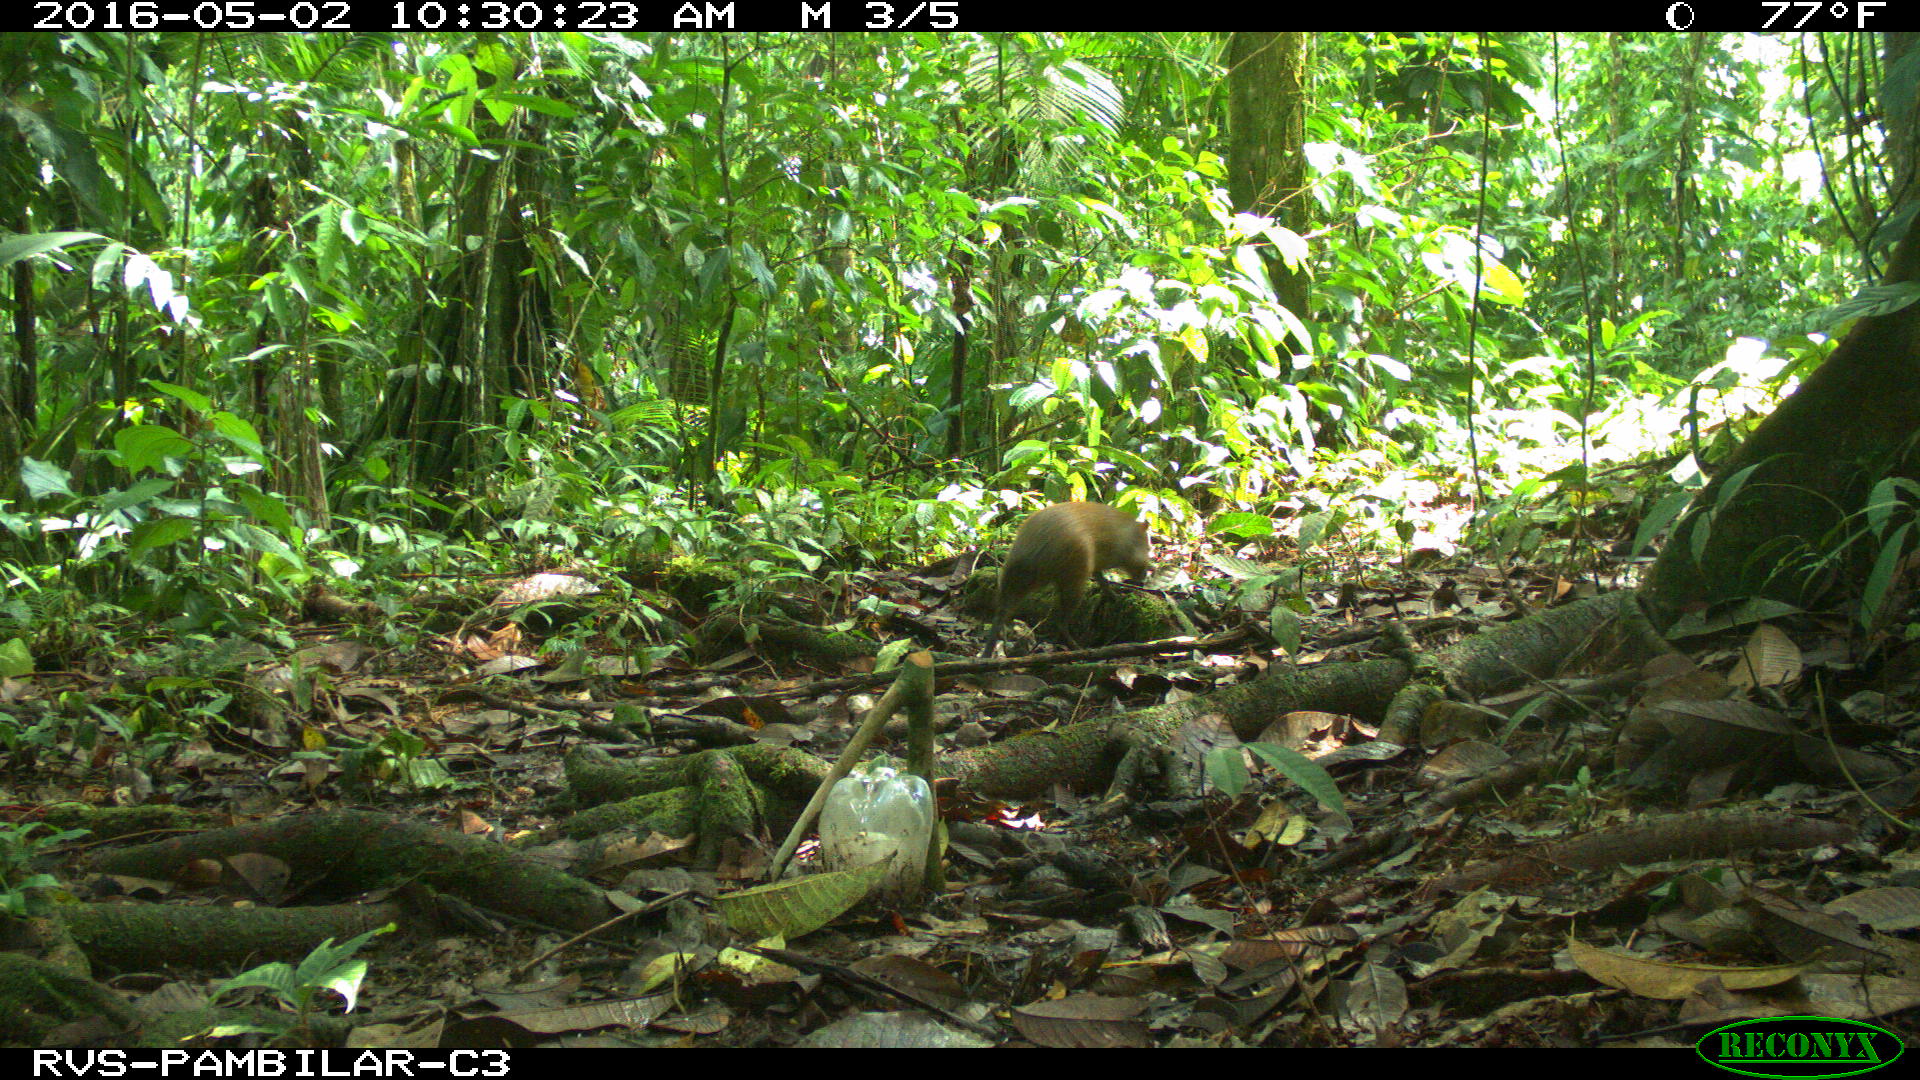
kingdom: Animalia
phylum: Chordata
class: Mammalia
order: Rodentia
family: Dasyproctidae
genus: Dasyprocta
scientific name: Dasyprocta punctata
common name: Central american agouti
